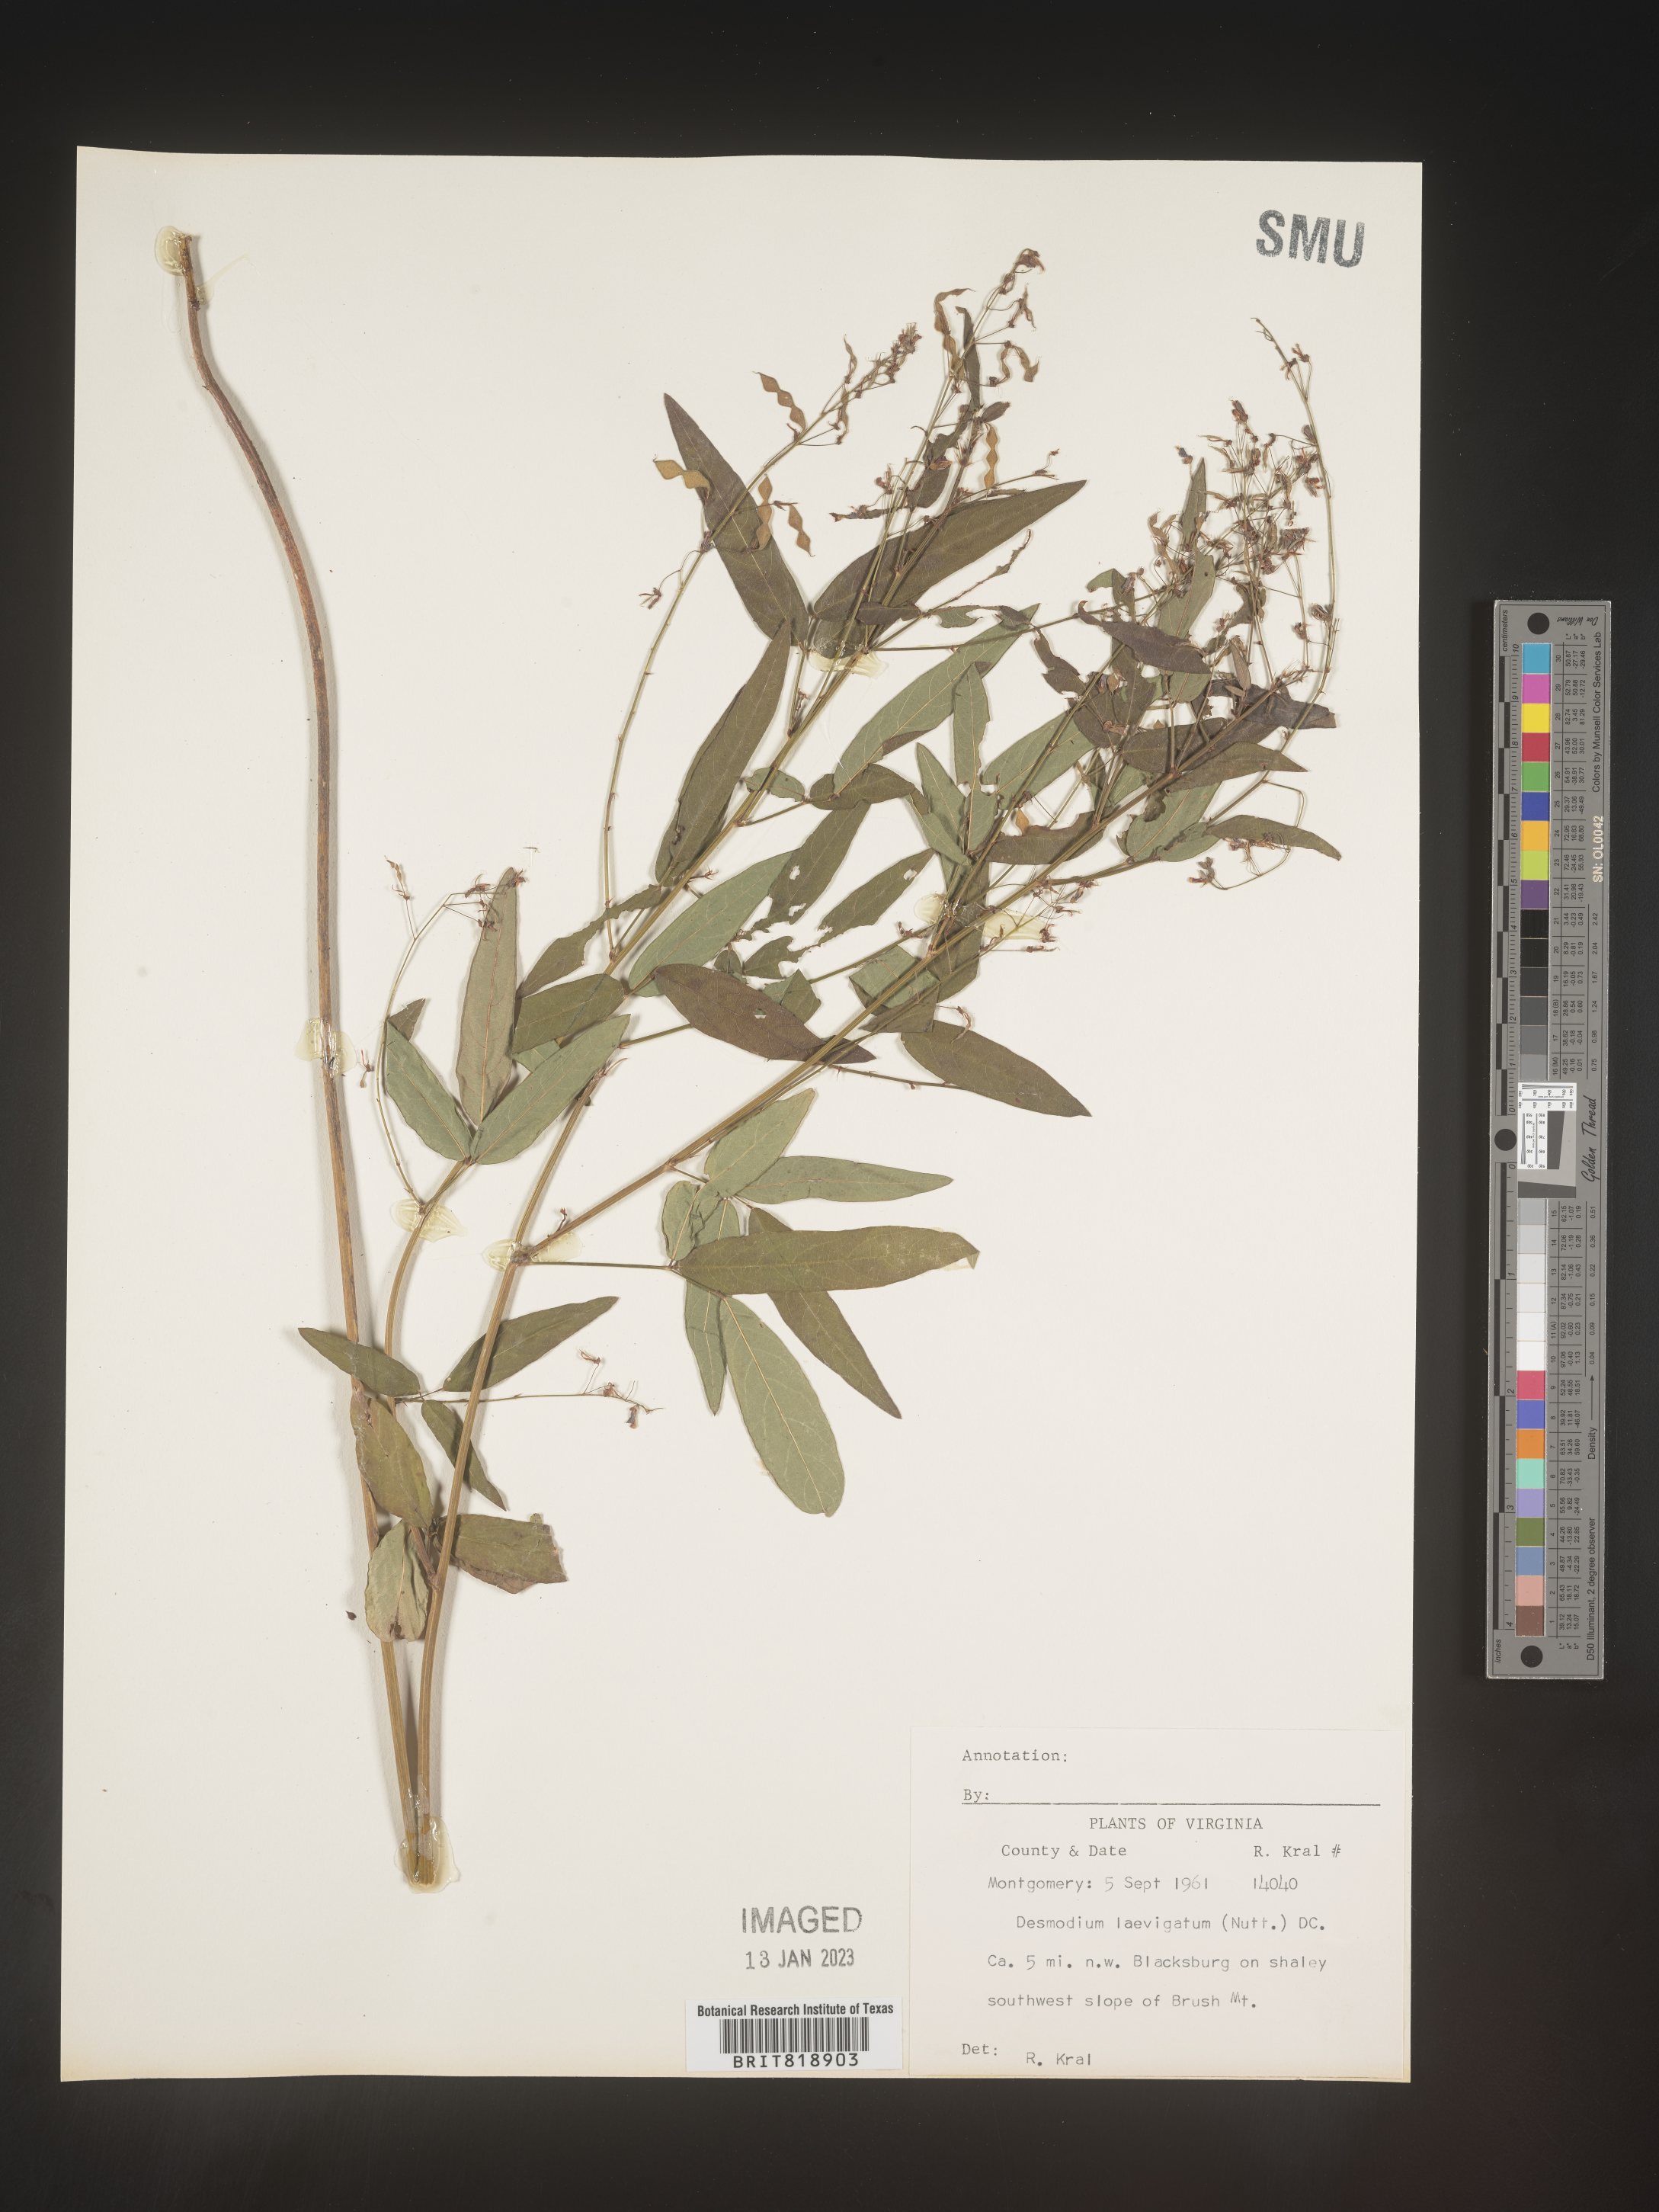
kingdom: Plantae
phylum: Tracheophyta
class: Magnoliopsida
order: Fabales
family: Fabaceae
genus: Desmodium
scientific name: Desmodium laevigatum
